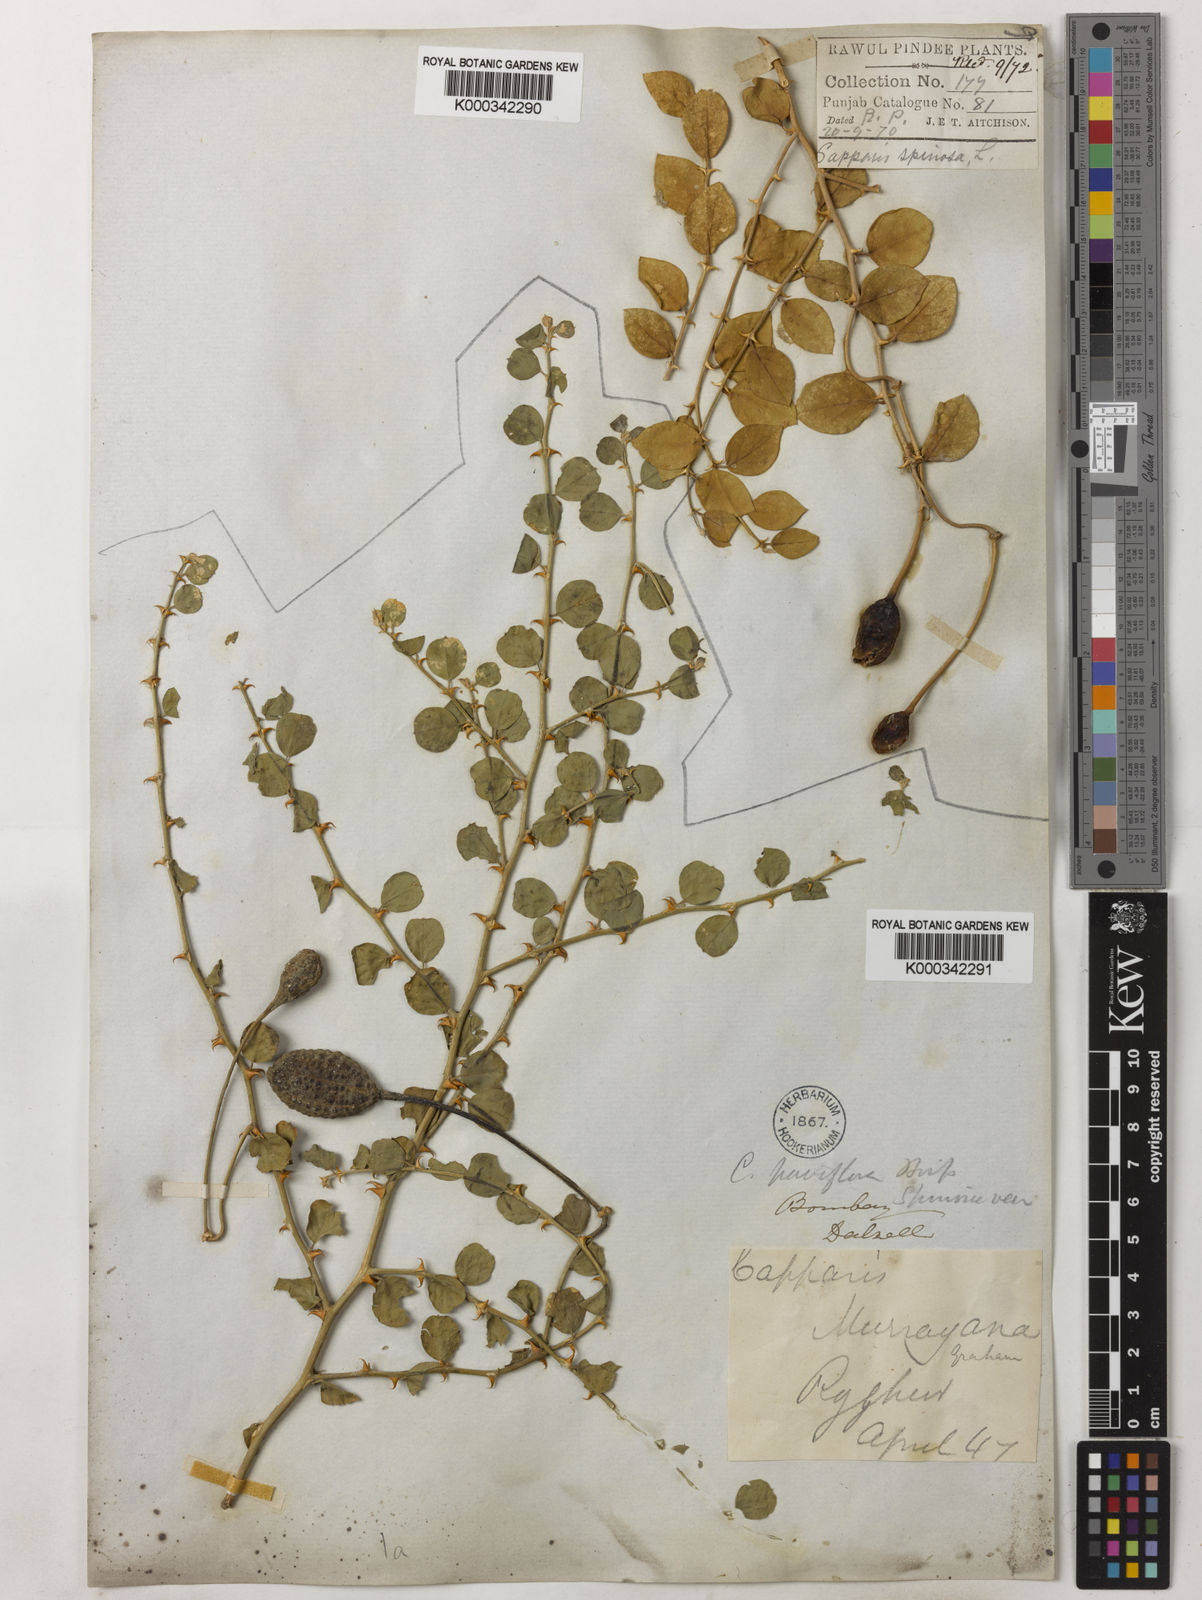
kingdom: Plantae
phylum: Tracheophyta
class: Magnoliopsida
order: Brassicales
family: Capparaceae
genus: Capparis
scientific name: Capparis spinosa
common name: Caper
